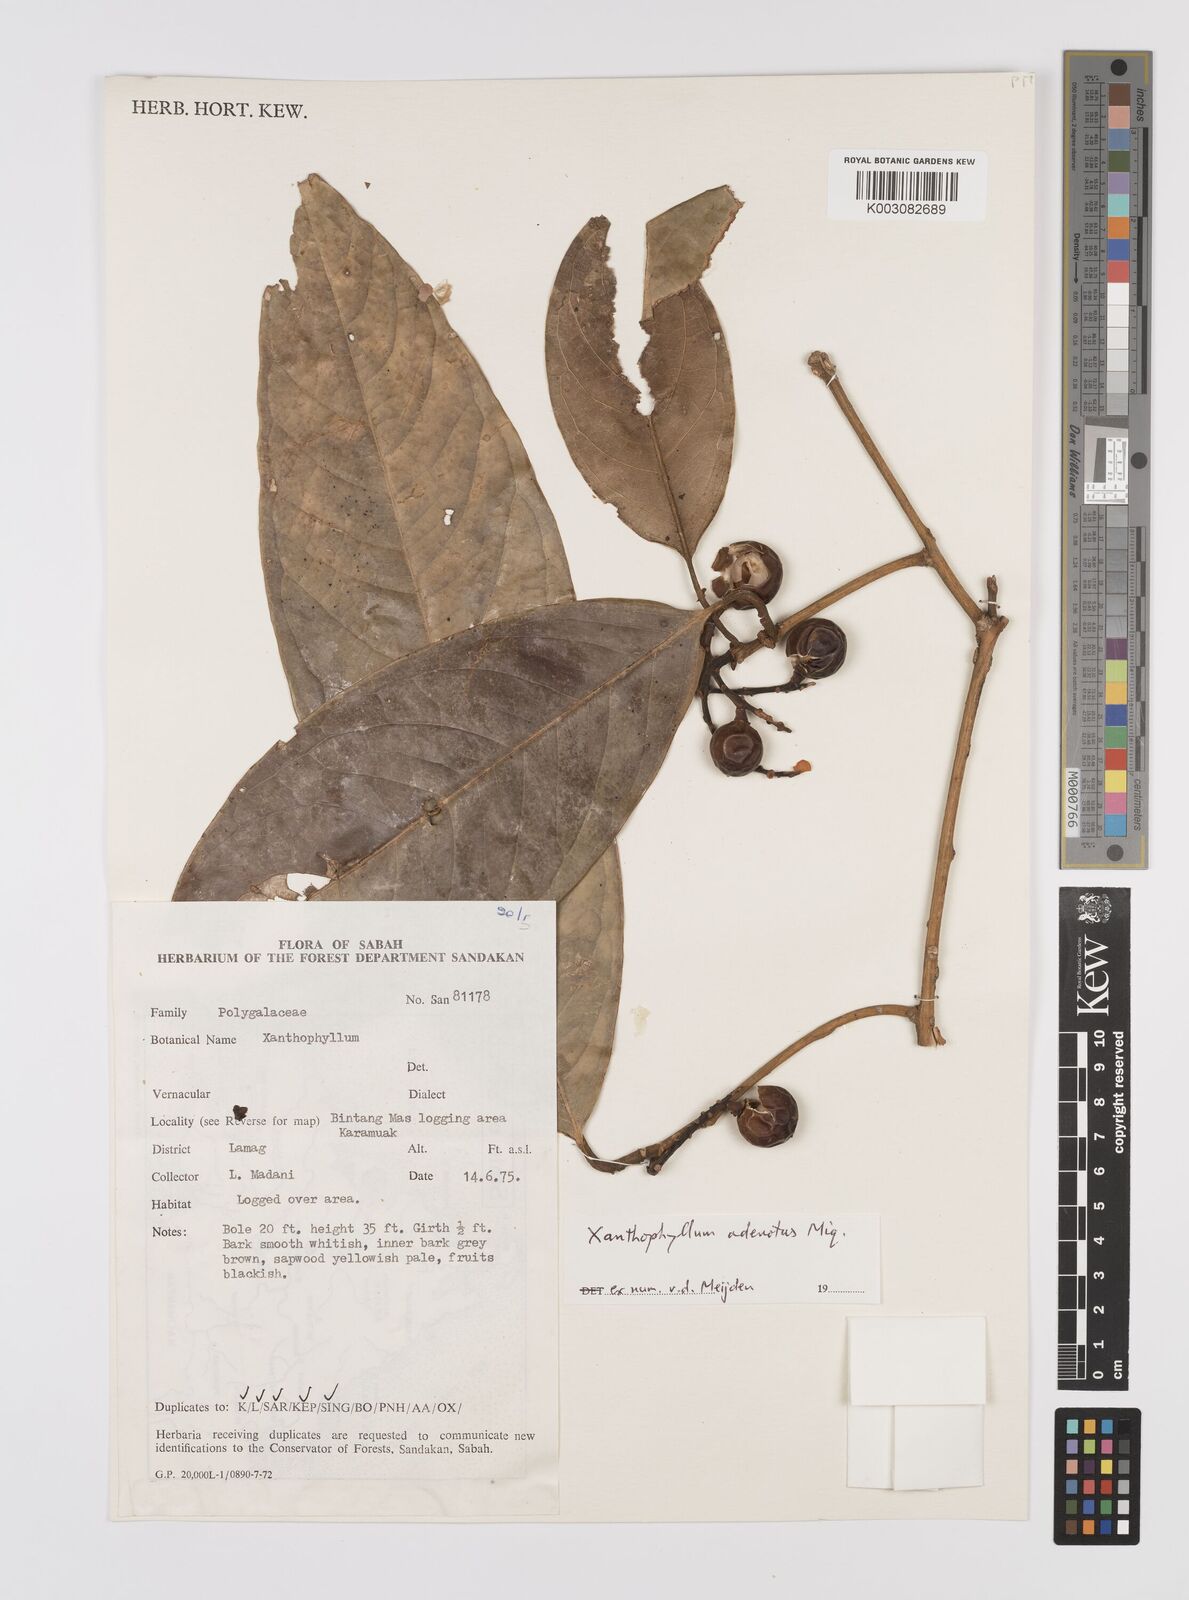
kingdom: Plantae
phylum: Tracheophyta
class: Magnoliopsida
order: Fabales
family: Polygalaceae
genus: Xanthophyllum
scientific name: Xanthophyllum adenotus
